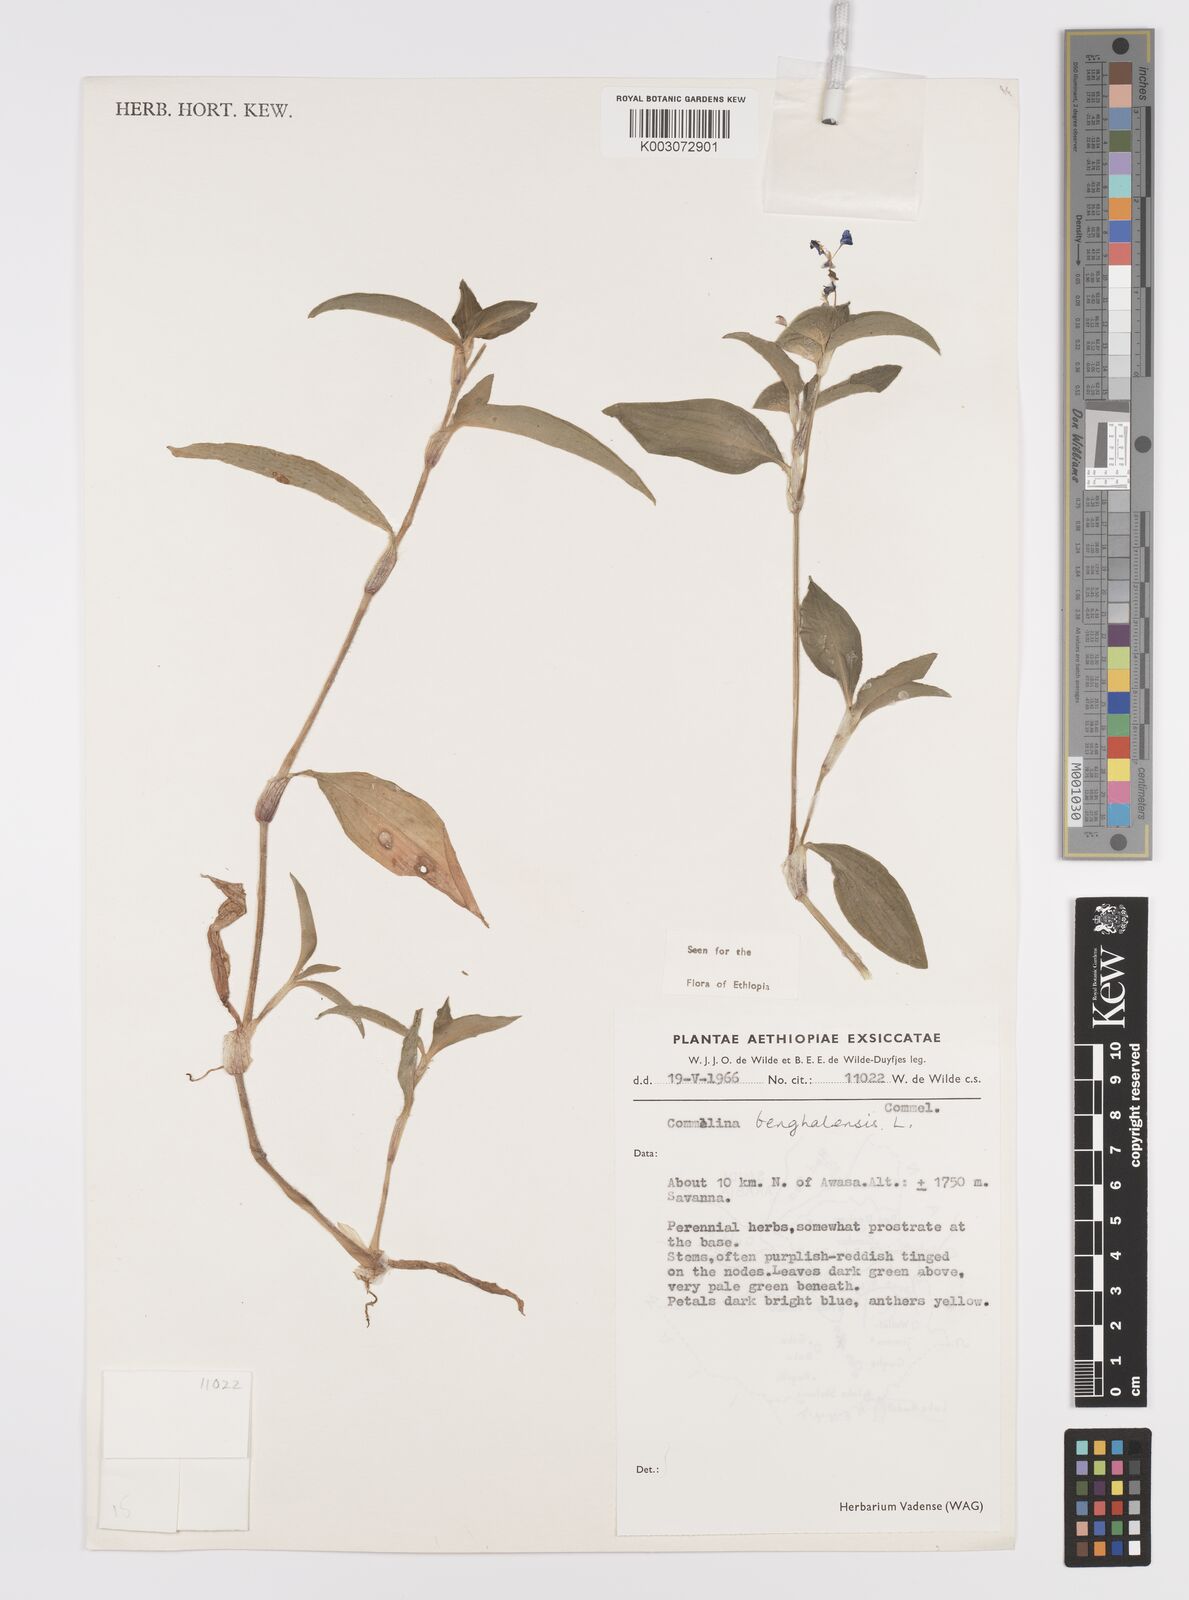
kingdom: Plantae
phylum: Tracheophyta
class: Liliopsida
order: Commelinales
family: Commelinaceae
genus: Commelina
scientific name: Commelina benghalensis
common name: Jio
